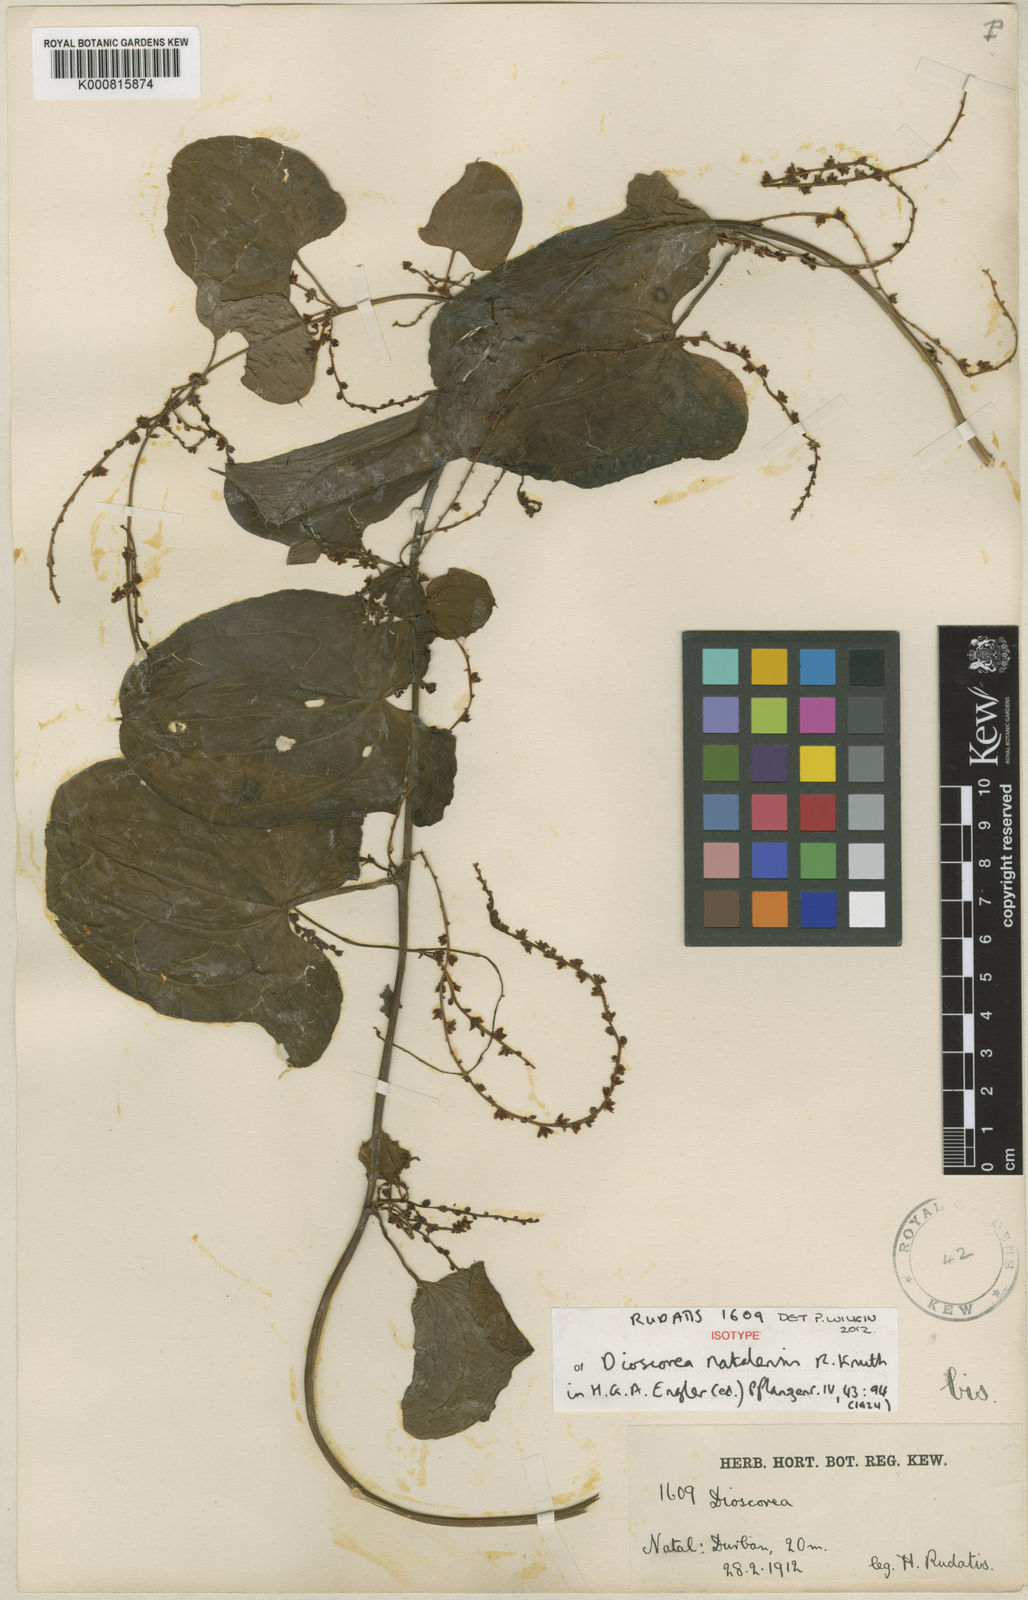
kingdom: Plantae
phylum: Tracheophyta
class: Liliopsida
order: Dioscoreales
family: Dioscoreaceae
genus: Dioscorea
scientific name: Dioscorea multiloba
